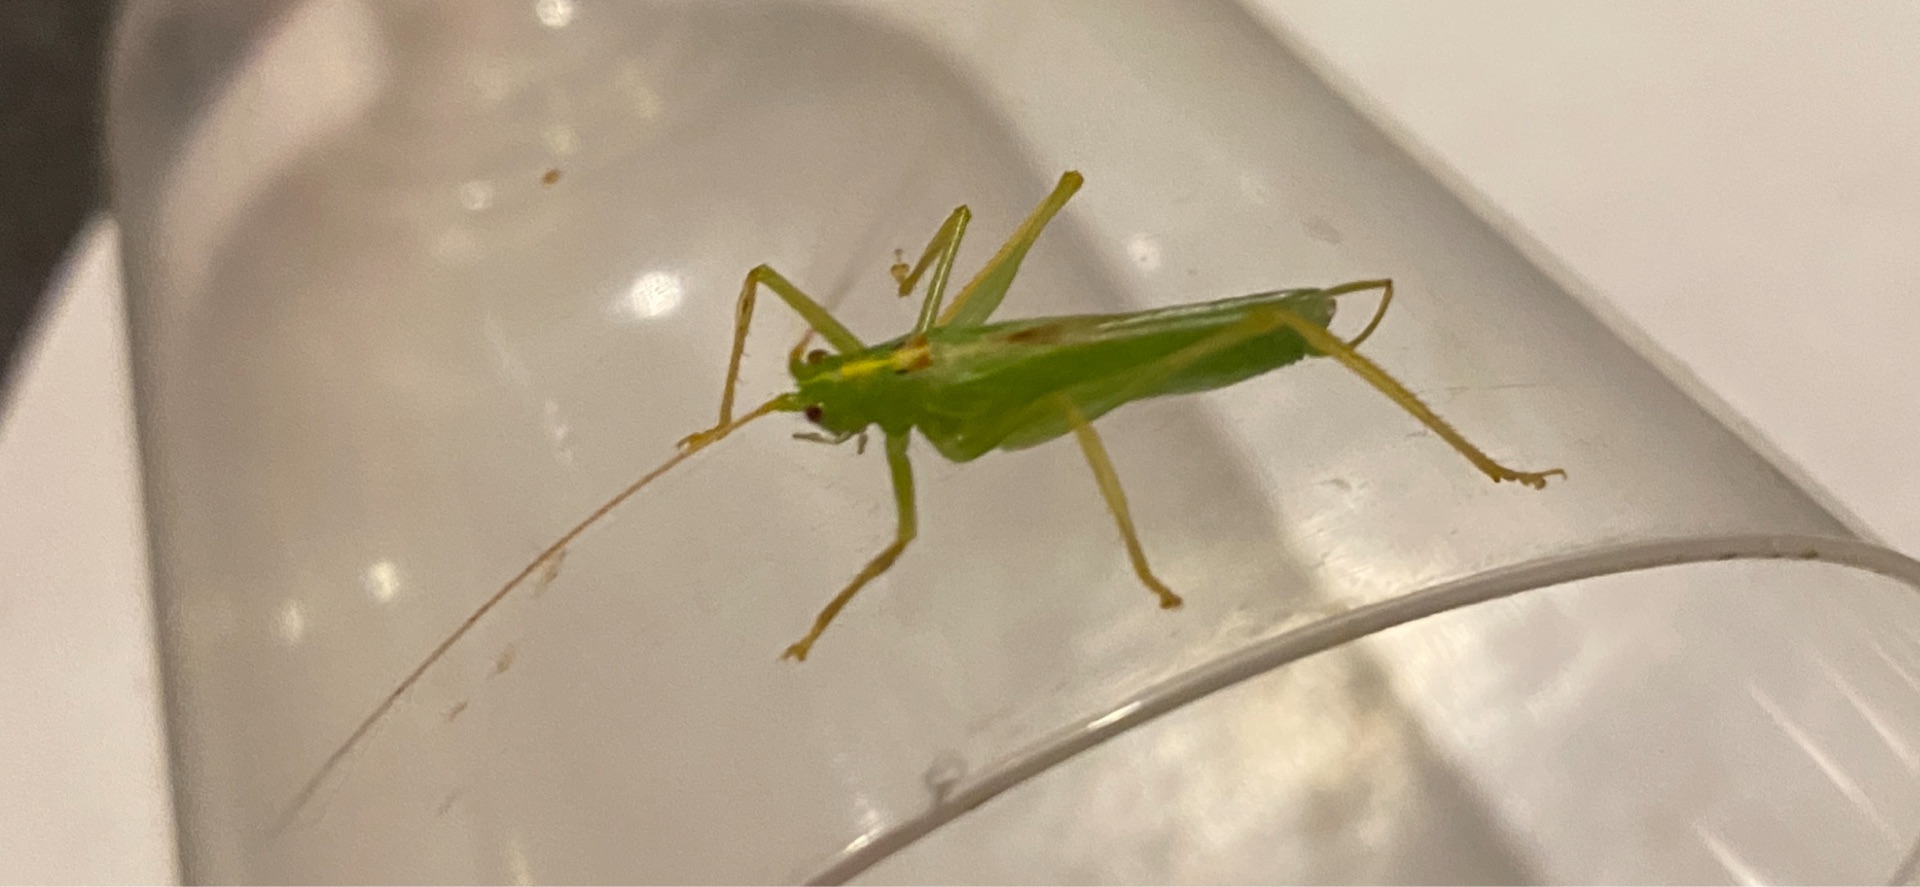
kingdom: Animalia
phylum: Arthropoda
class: Insecta
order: Orthoptera
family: Tettigoniidae
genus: Meconema
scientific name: Meconema thalassinum
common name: Egegræshoppe
